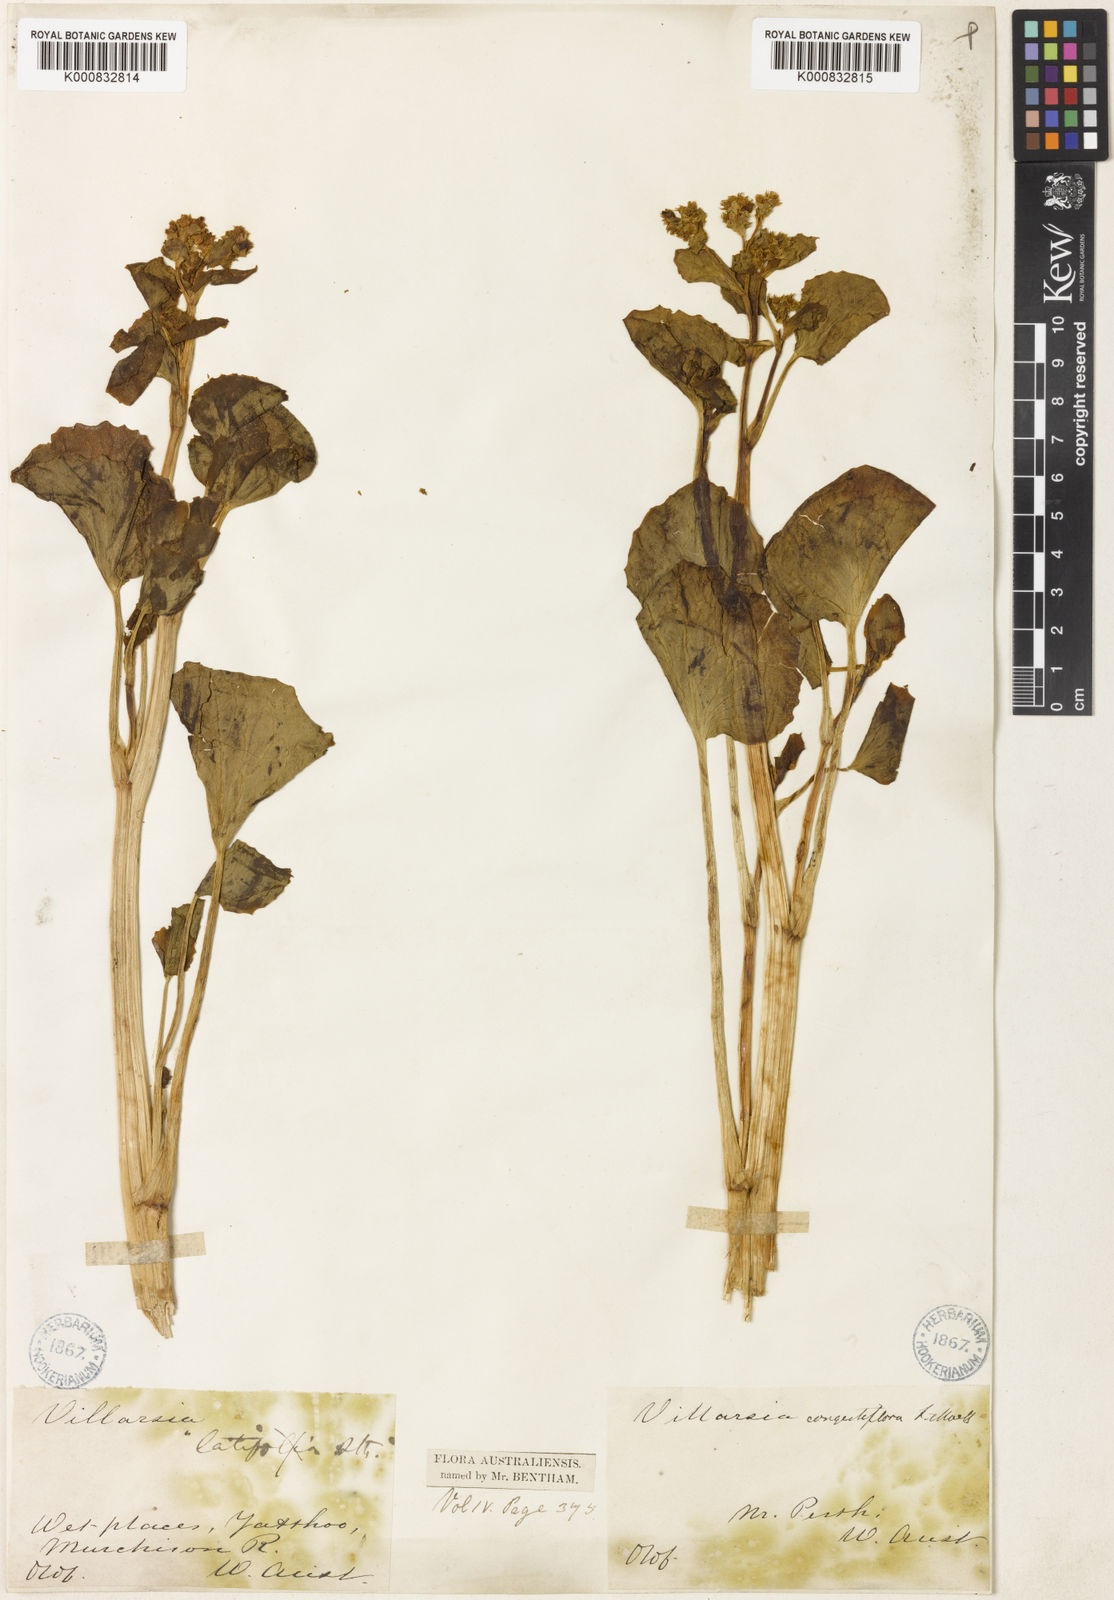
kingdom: Plantae
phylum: Tracheophyta
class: Magnoliopsida
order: Asterales
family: Menyanthaceae
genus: Liparophyllum
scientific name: Liparophyllum congestiflorum
